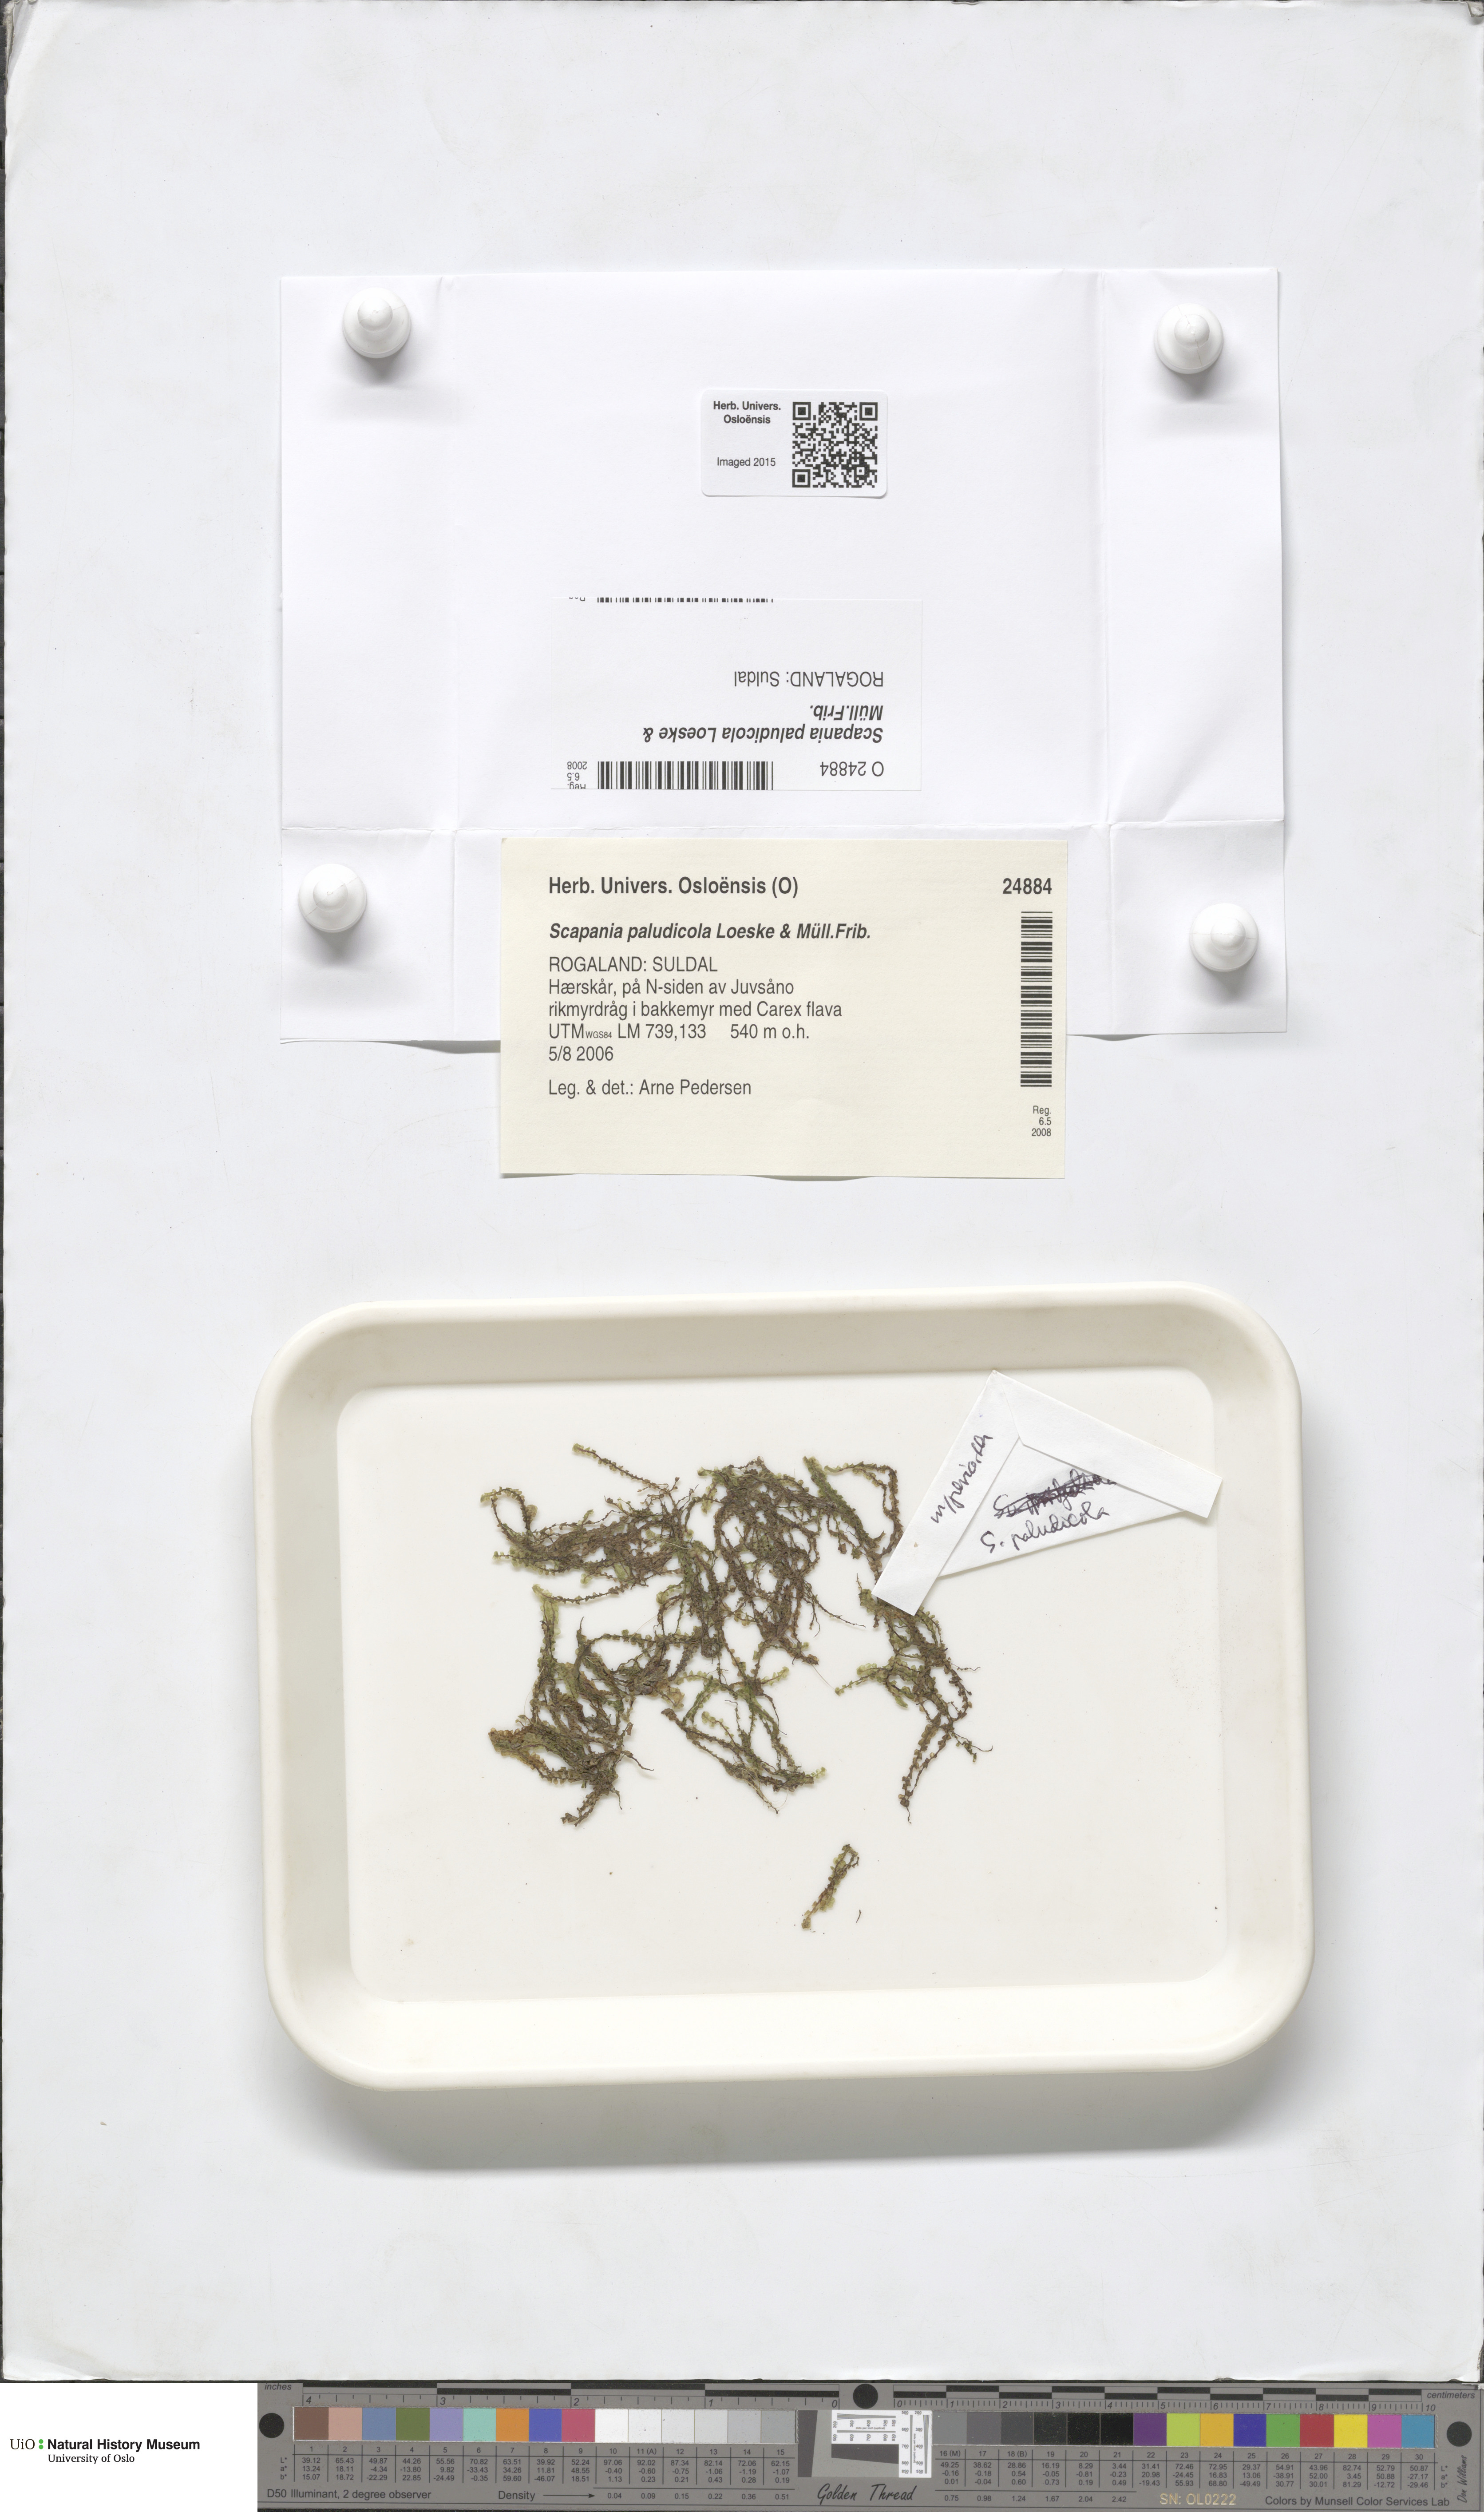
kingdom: Plantae
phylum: Marchantiophyta
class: Jungermanniopsida
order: Jungermanniales
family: Scapaniaceae
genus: Scapania
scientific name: Scapania paludicola
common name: Bog earwort
